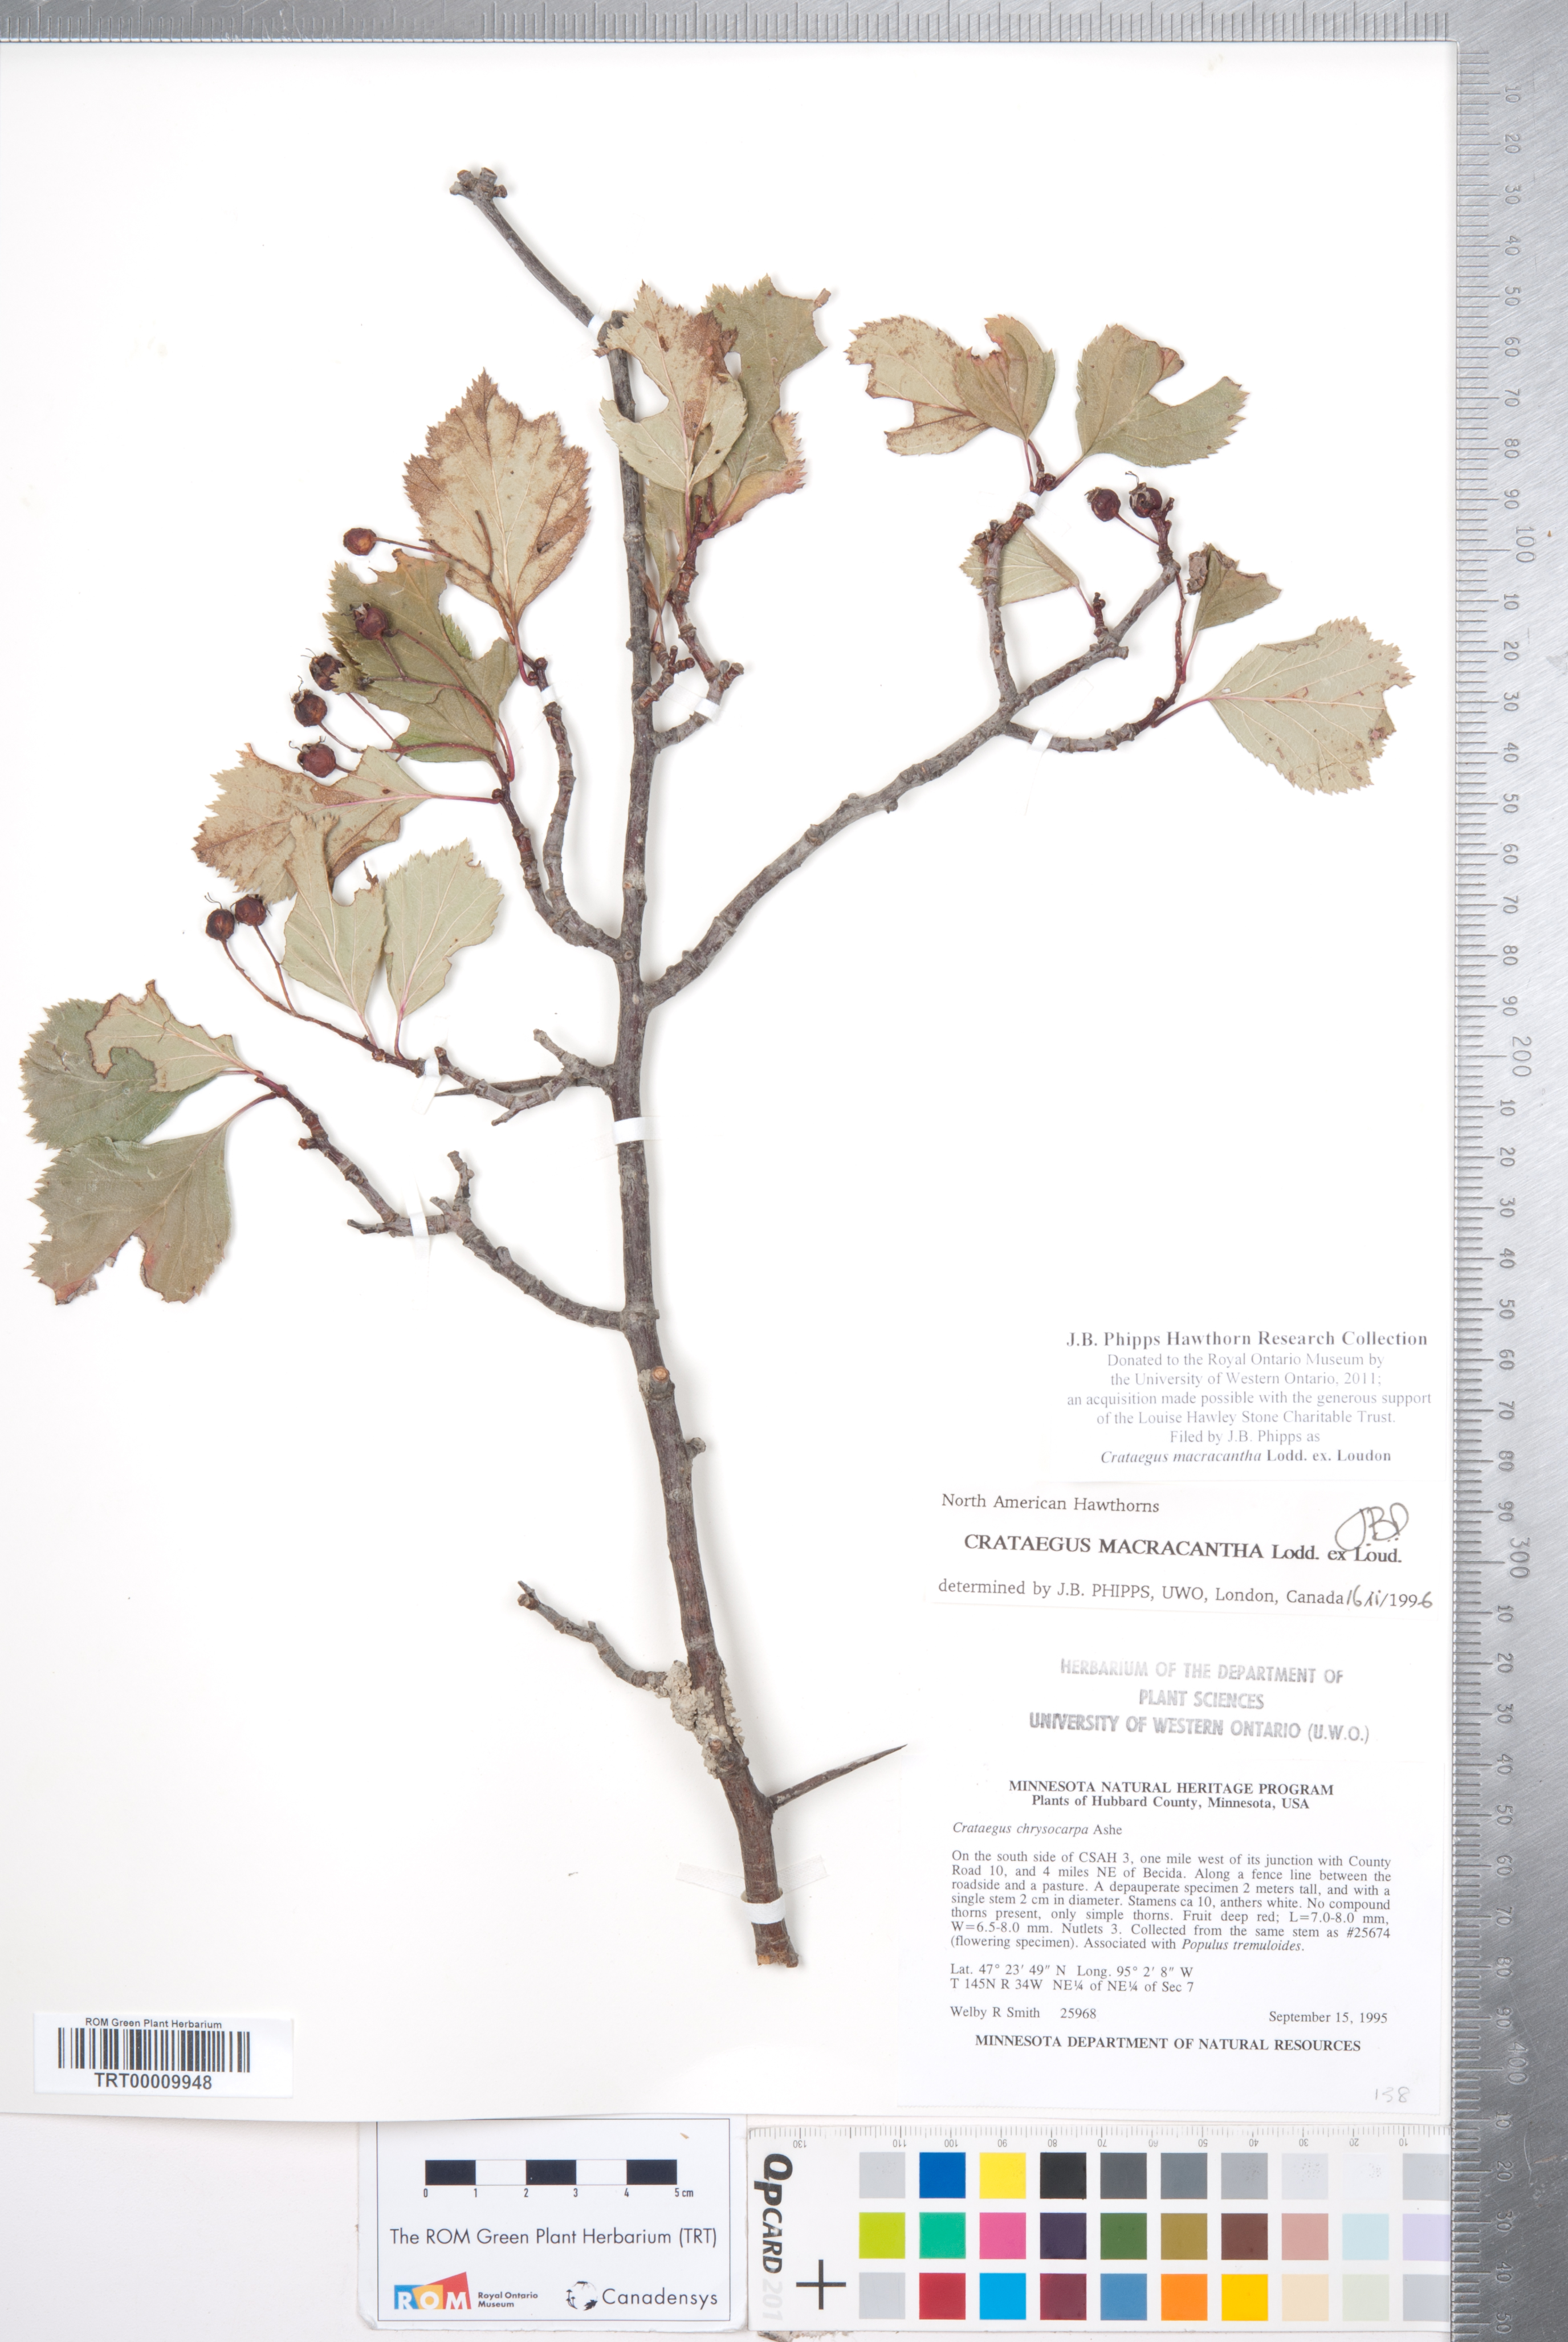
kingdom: Plantae
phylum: Tracheophyta
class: Magnoliopsida
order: Rosales
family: Rosaceae
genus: Crataegus
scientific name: Crataegus macracantha
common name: Large-thorn hawthorn
